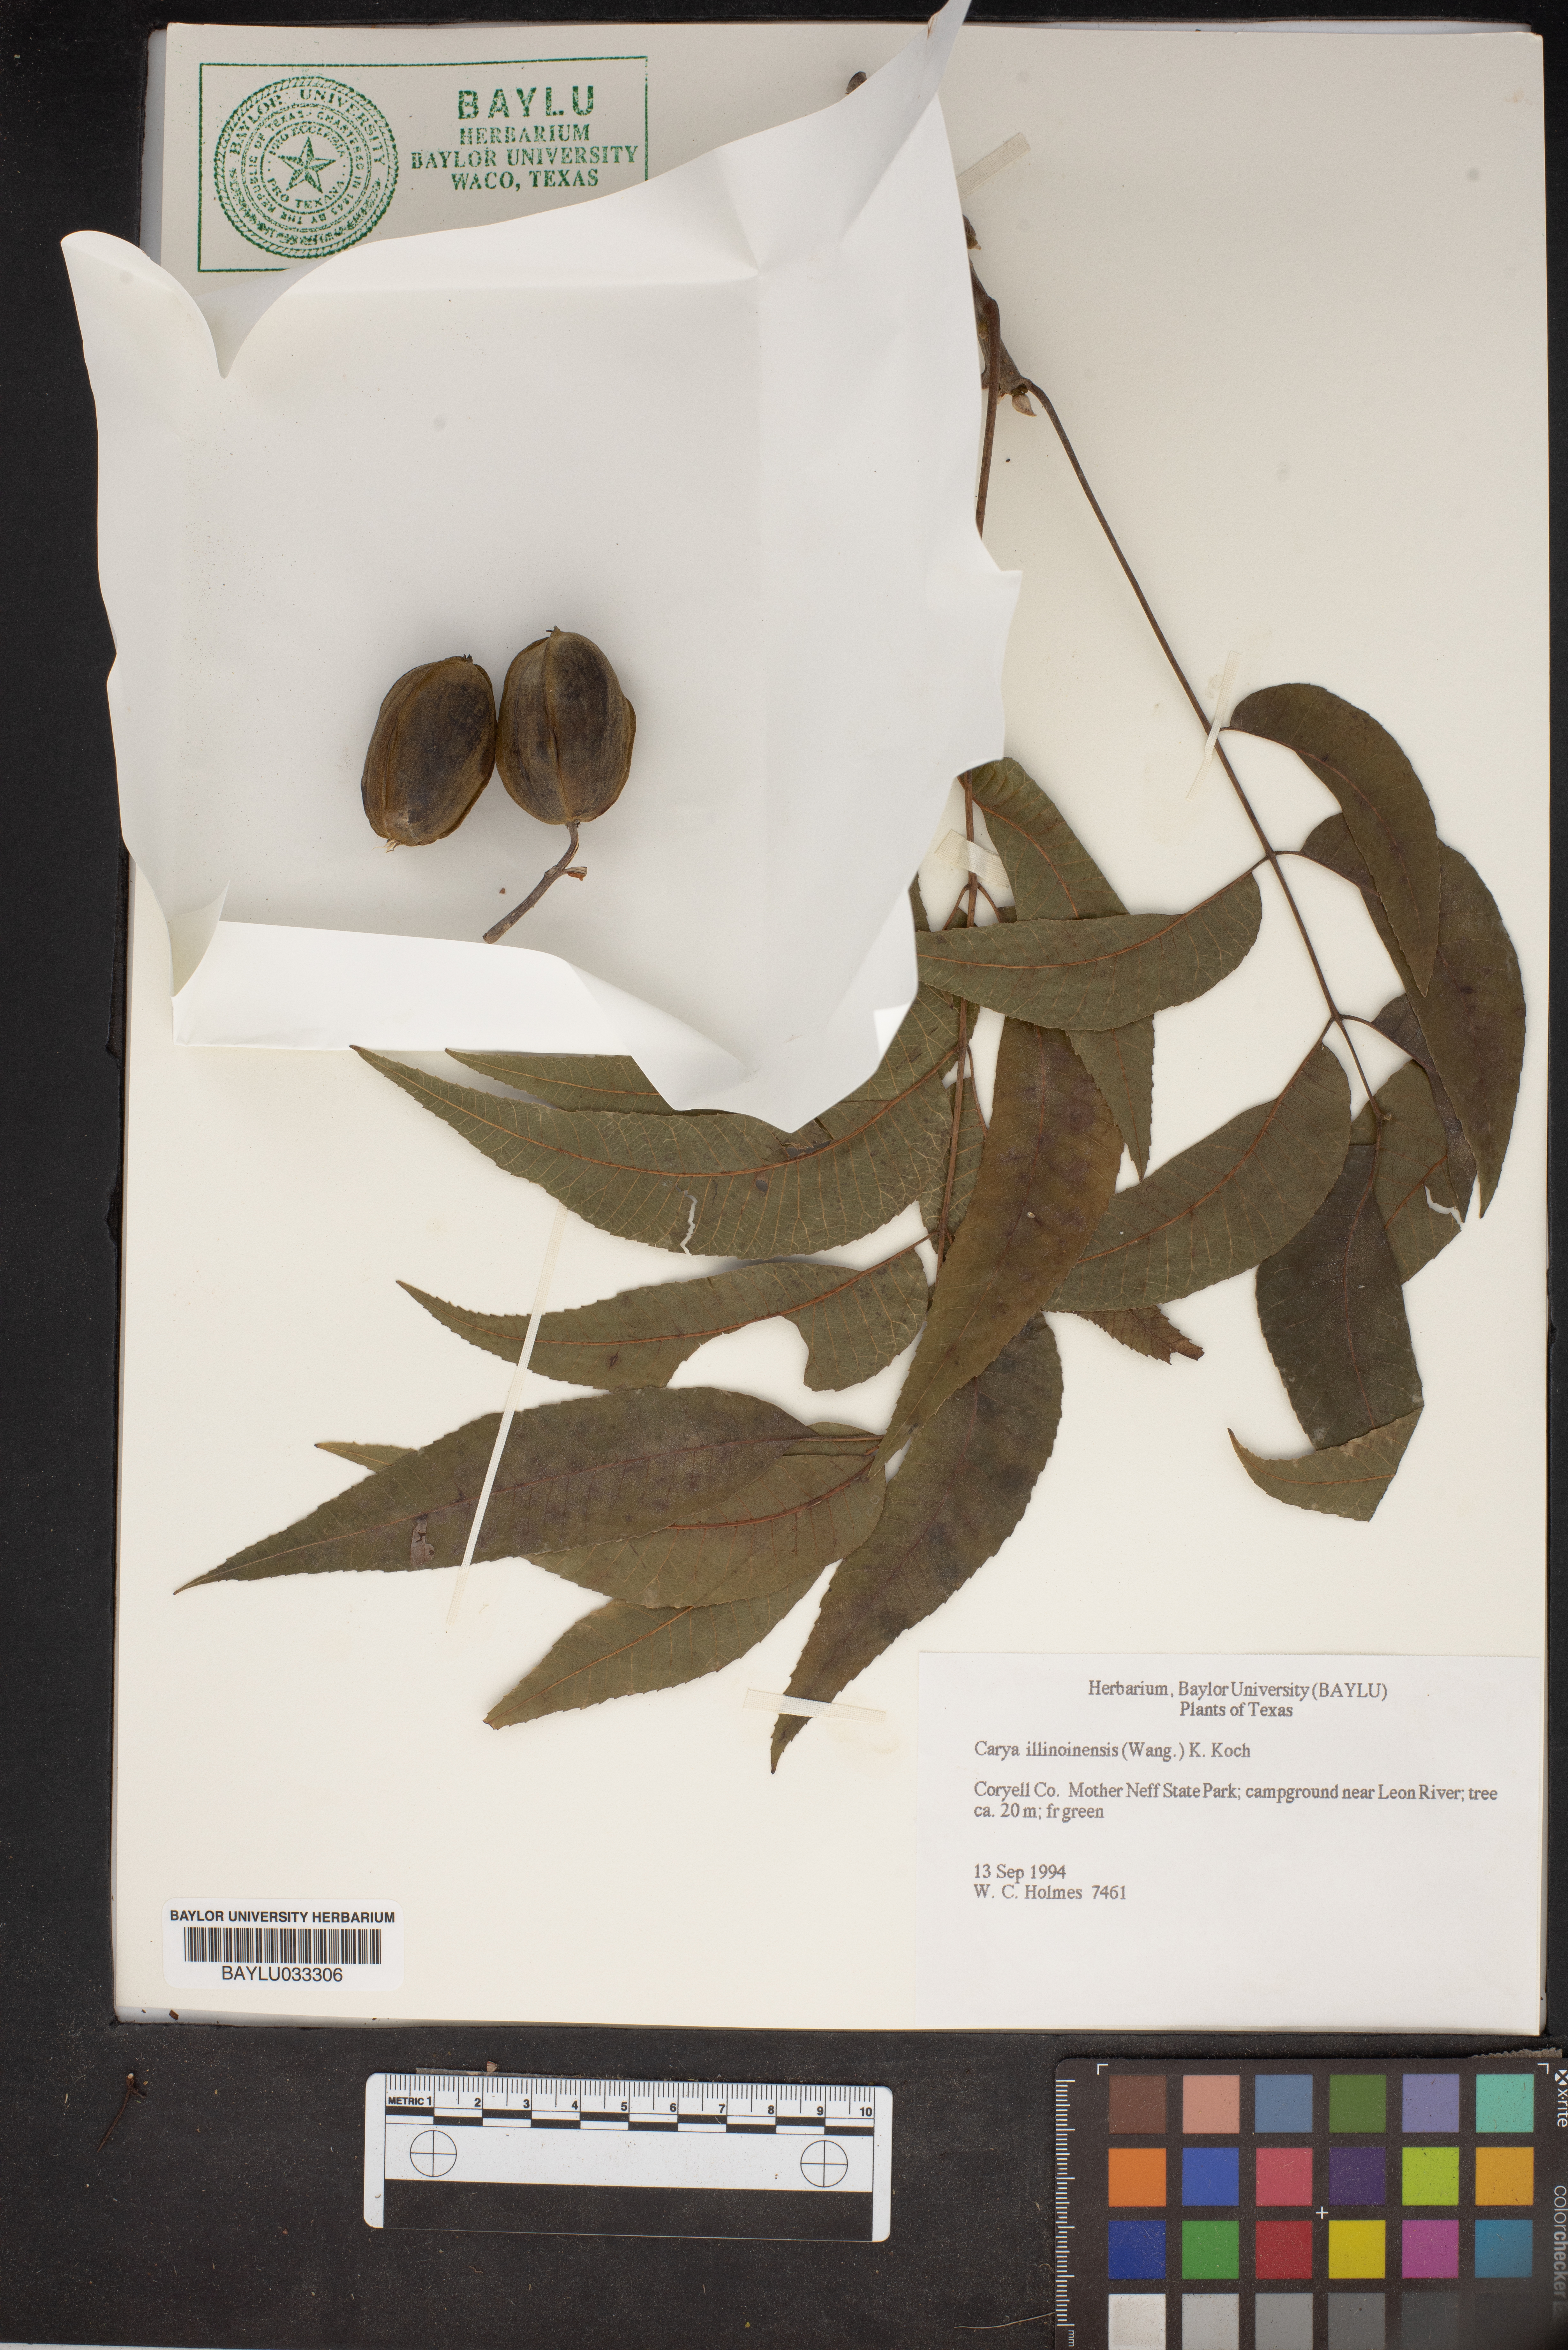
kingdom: Plantae
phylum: Tracheophyta
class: Magnoliopsida
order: Fagales
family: Juglandaceae
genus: Carya
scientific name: Carya illinoinensis
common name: Pecan
